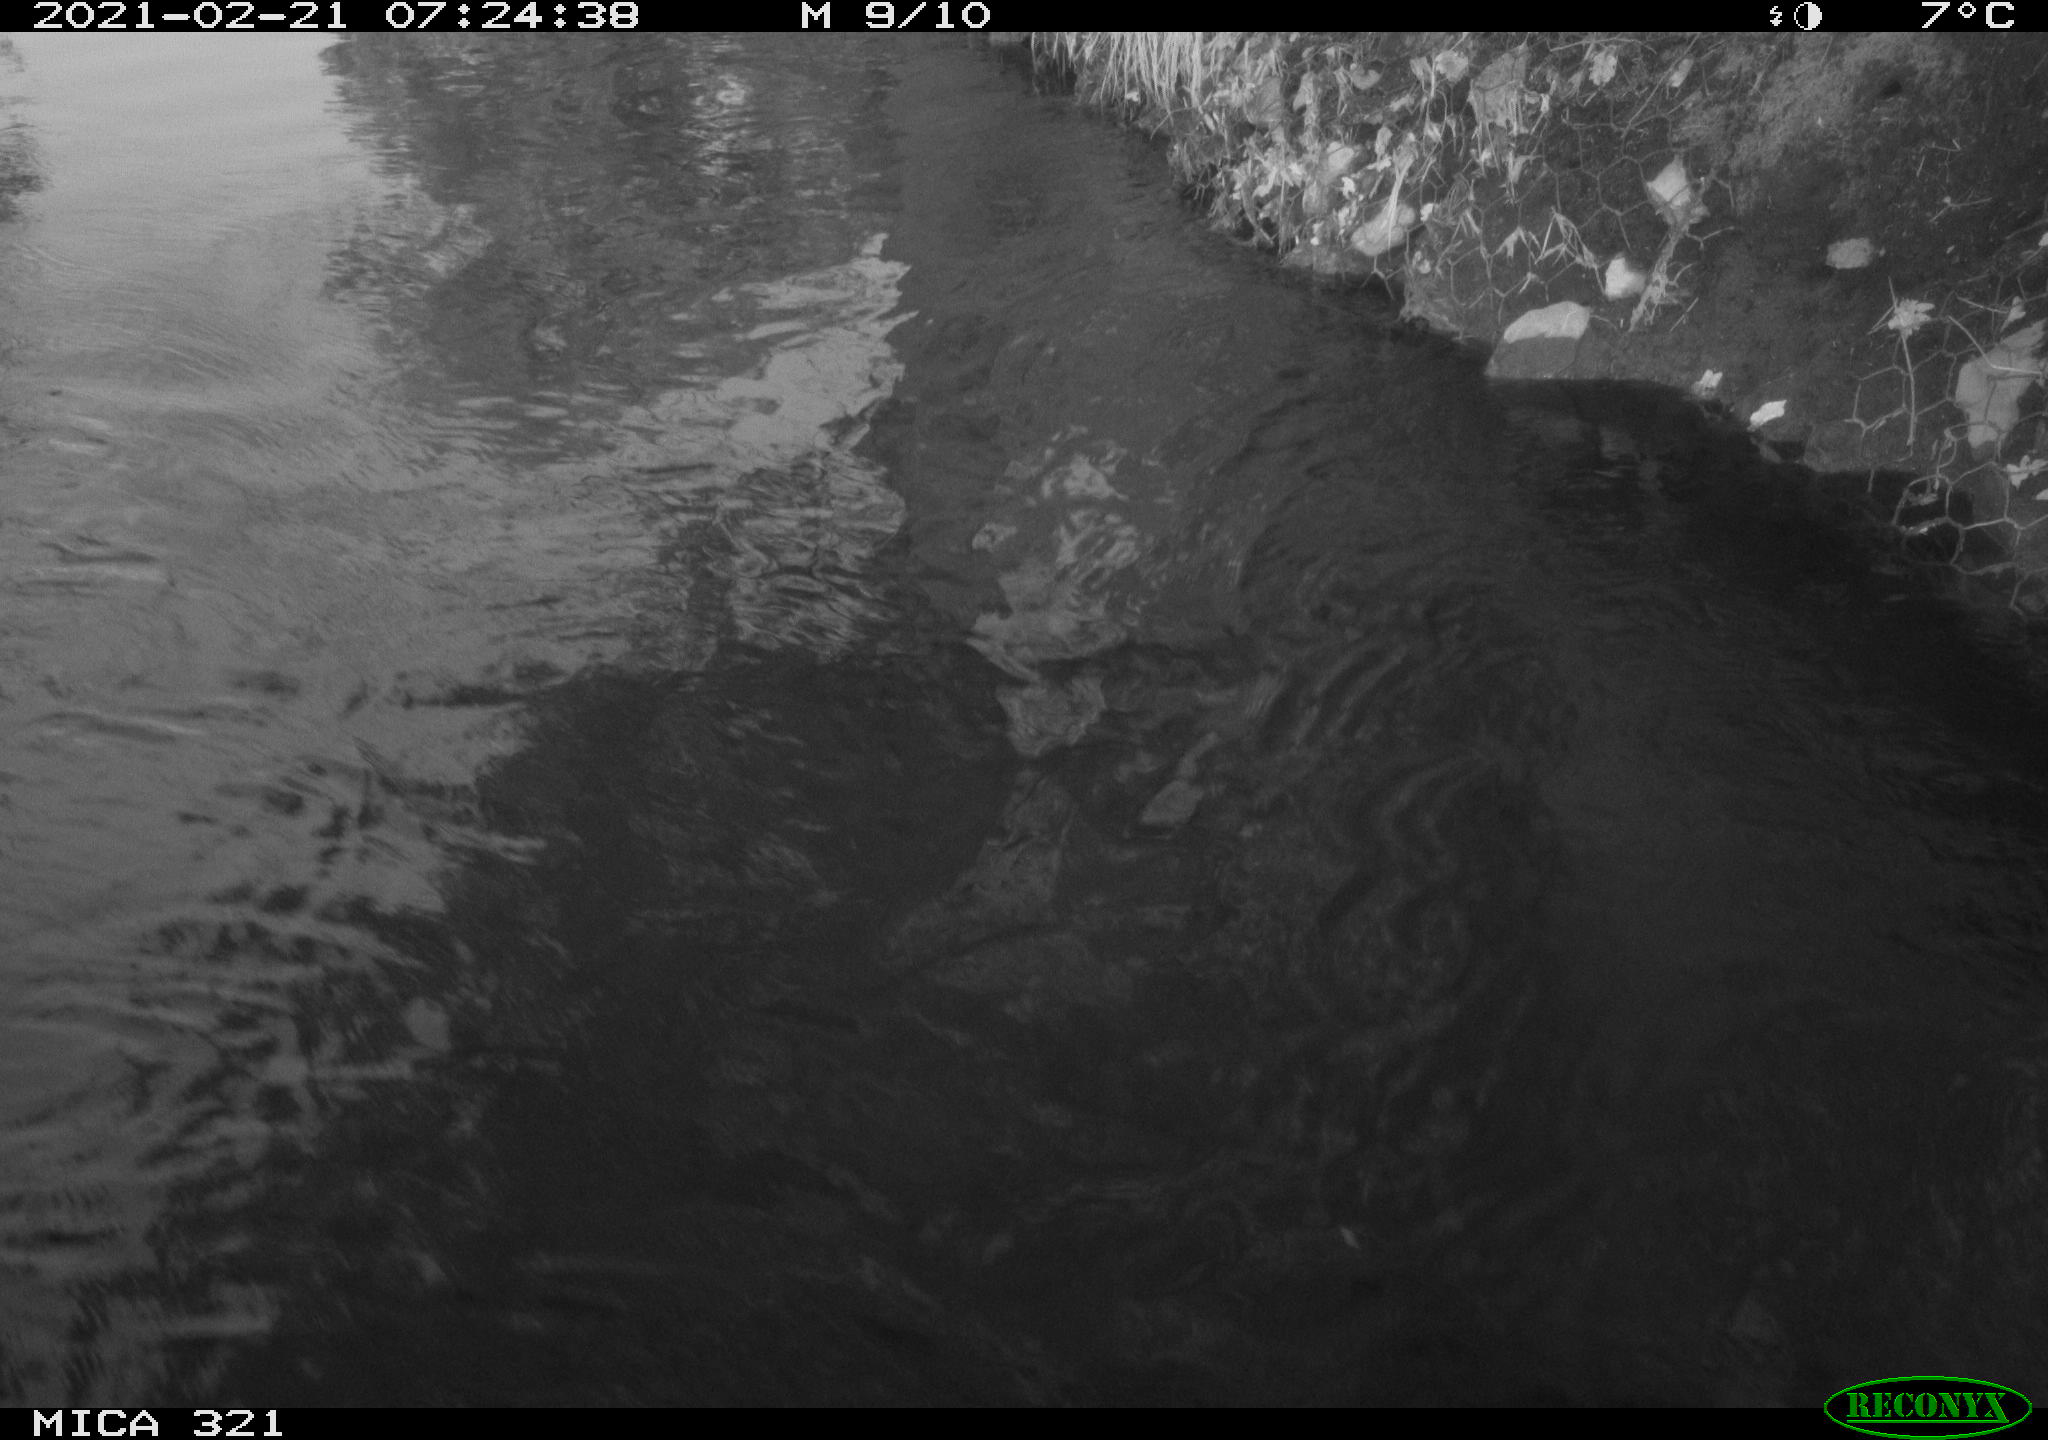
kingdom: Animalia
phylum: Chordata
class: Aves
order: Suliformes
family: Phalacrocoracidae
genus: Phalacrocorax
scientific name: Phalacrocorax carbo
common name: Great cormorant
